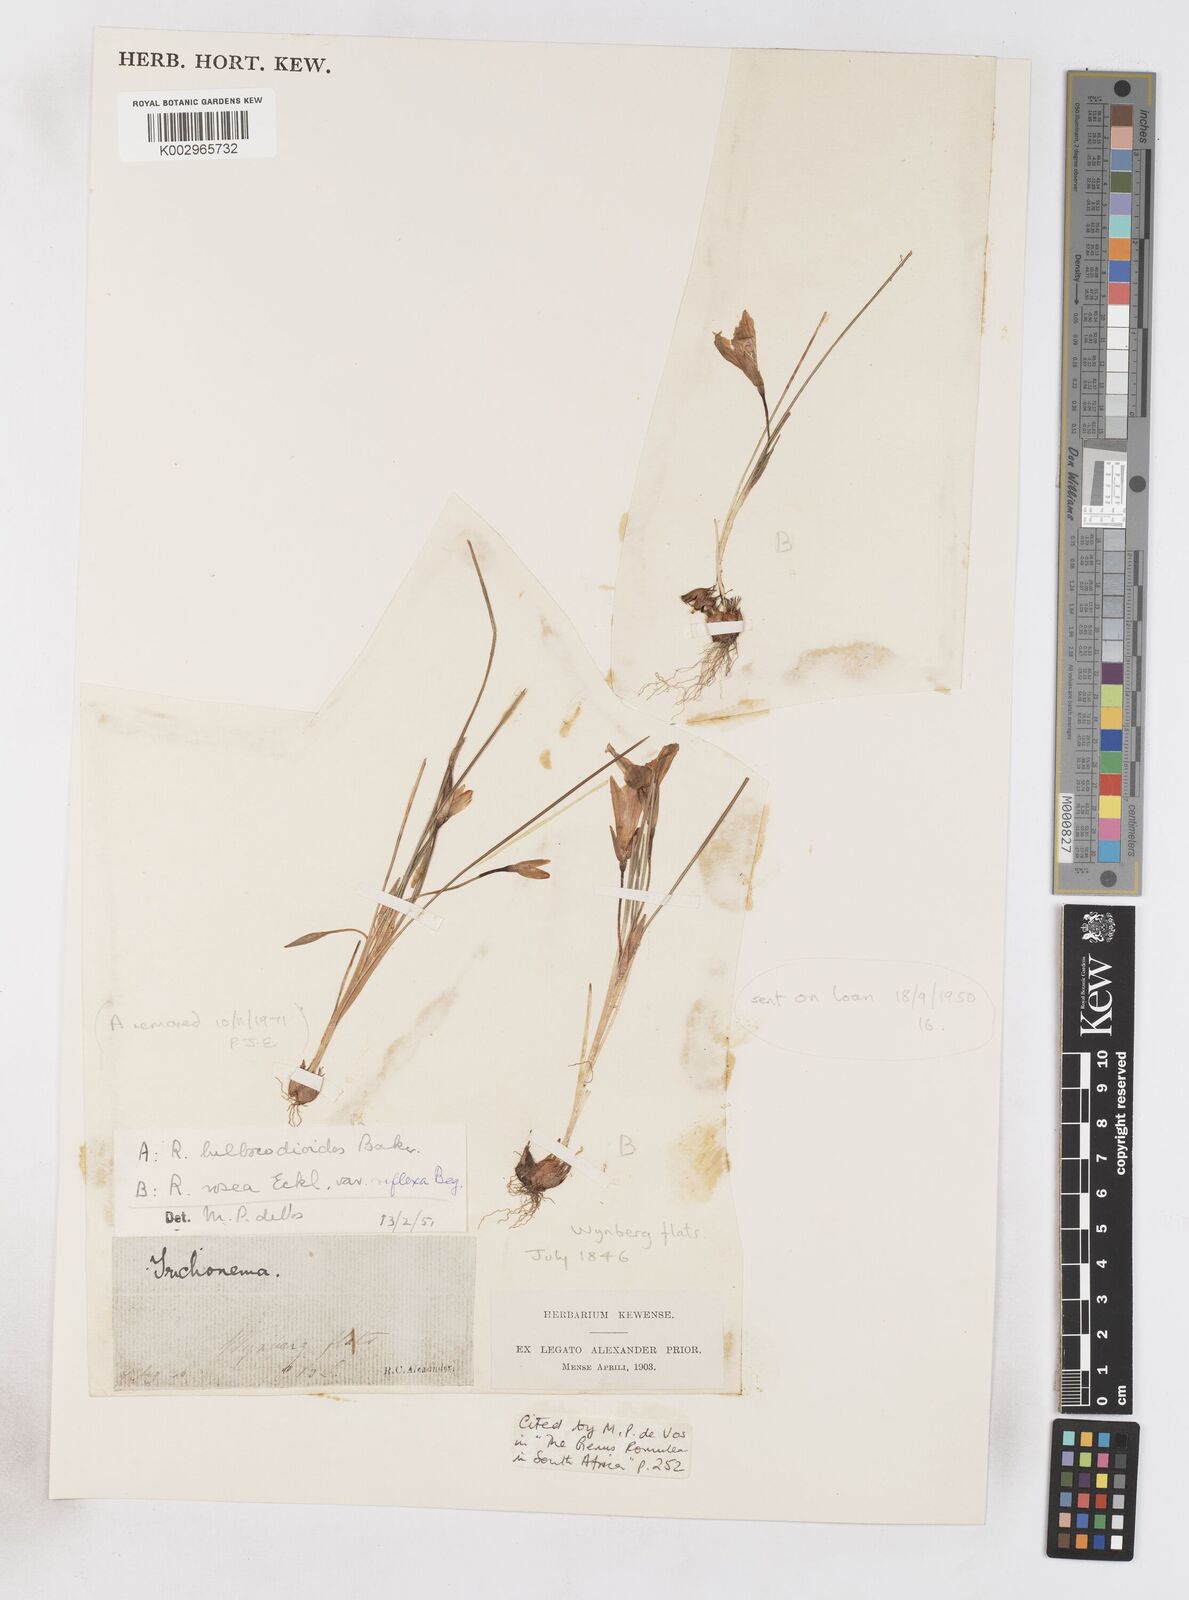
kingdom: Plantae
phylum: Tracheophyta
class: Liliopsida
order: Asparagales
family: Iridaceae
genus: Romulea
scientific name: Romulea rosea
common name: Oniongrass
